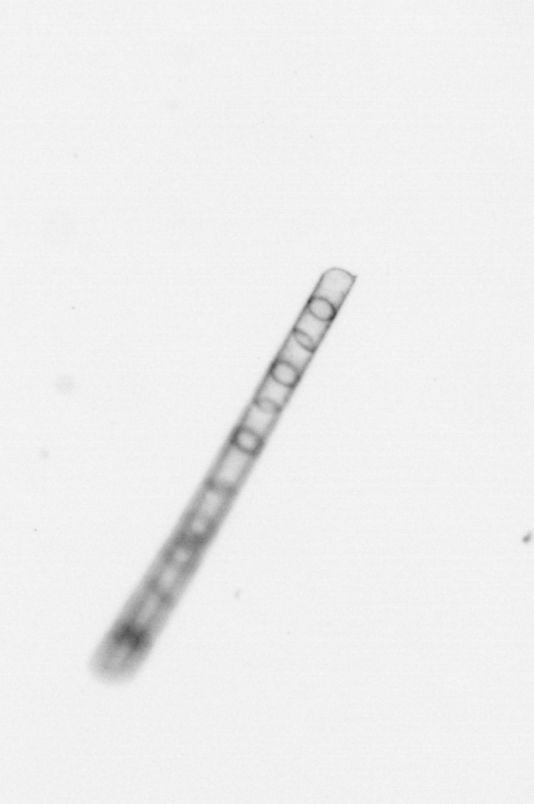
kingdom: Chromista
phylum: Ochrophyta
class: Bacillariophyceae
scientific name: Bacillariophyceae
